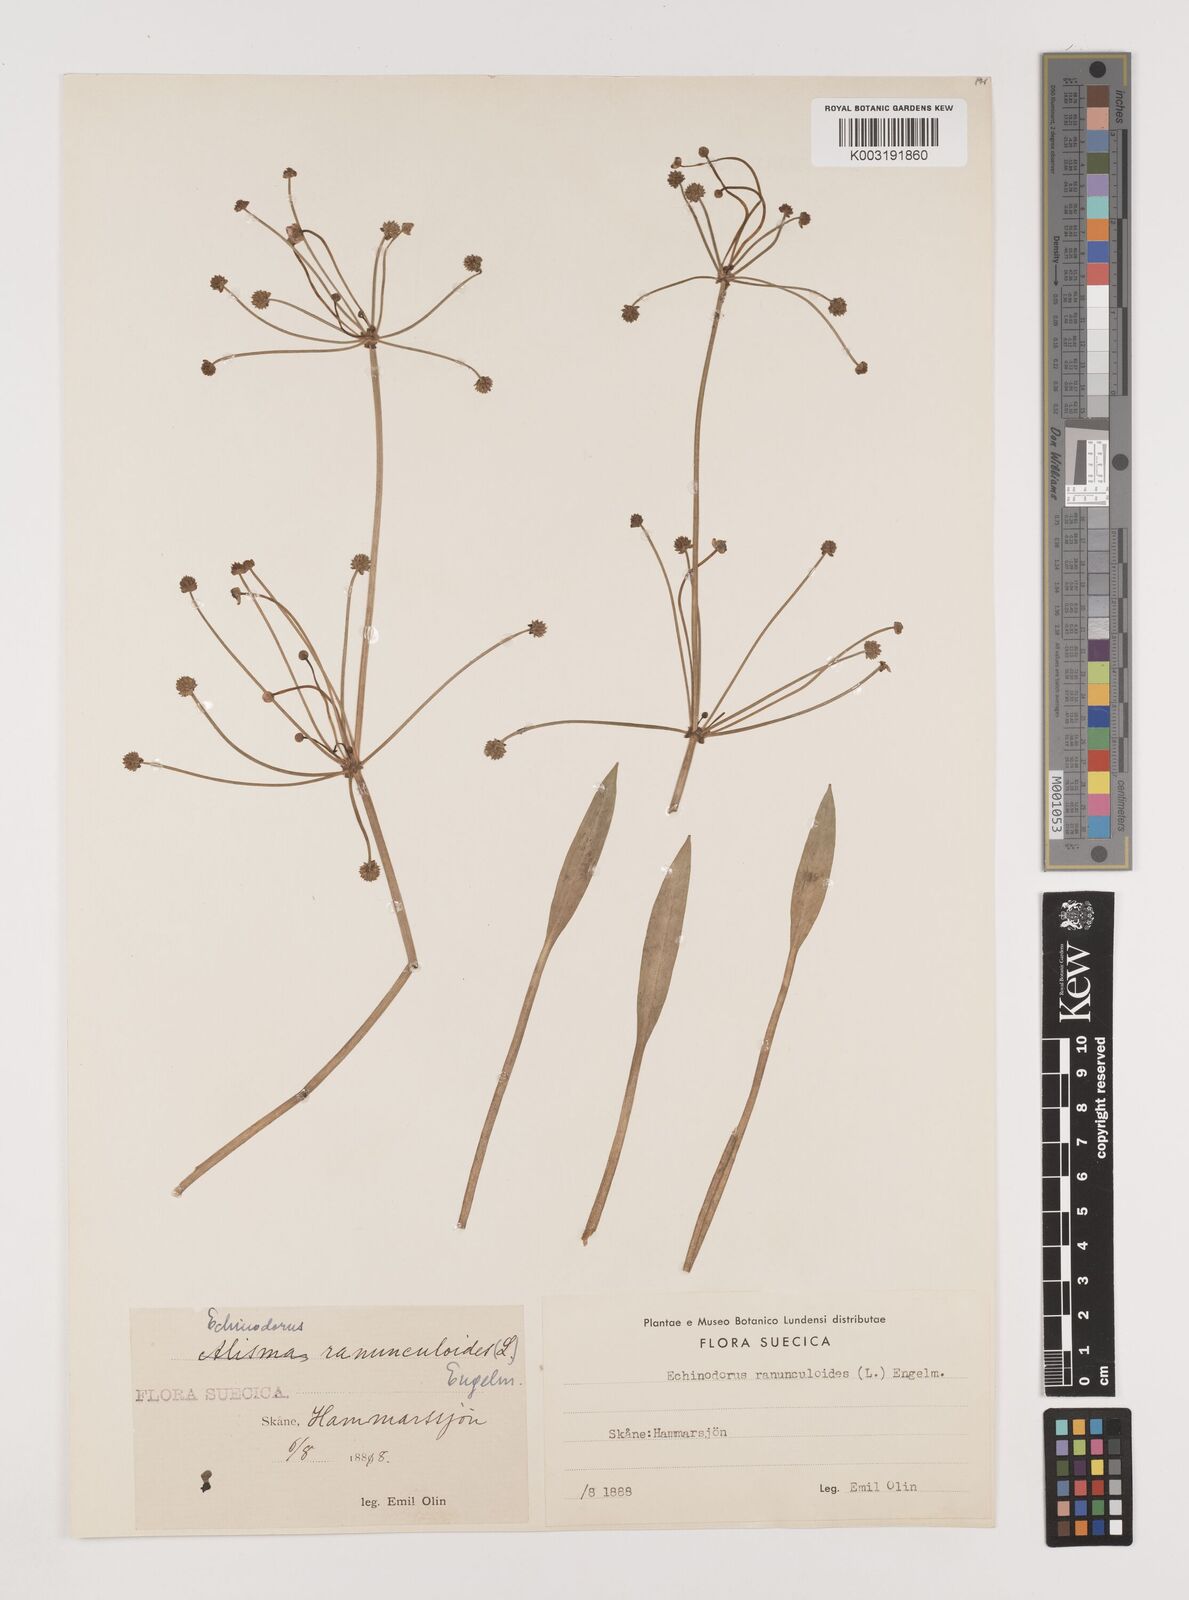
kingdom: Plantae
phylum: Tracheophyta
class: Liliopsida
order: Alismatales
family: Alismataceae
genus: Baldellia
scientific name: Baldellia ranunculoides
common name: Lesser water-plantain
